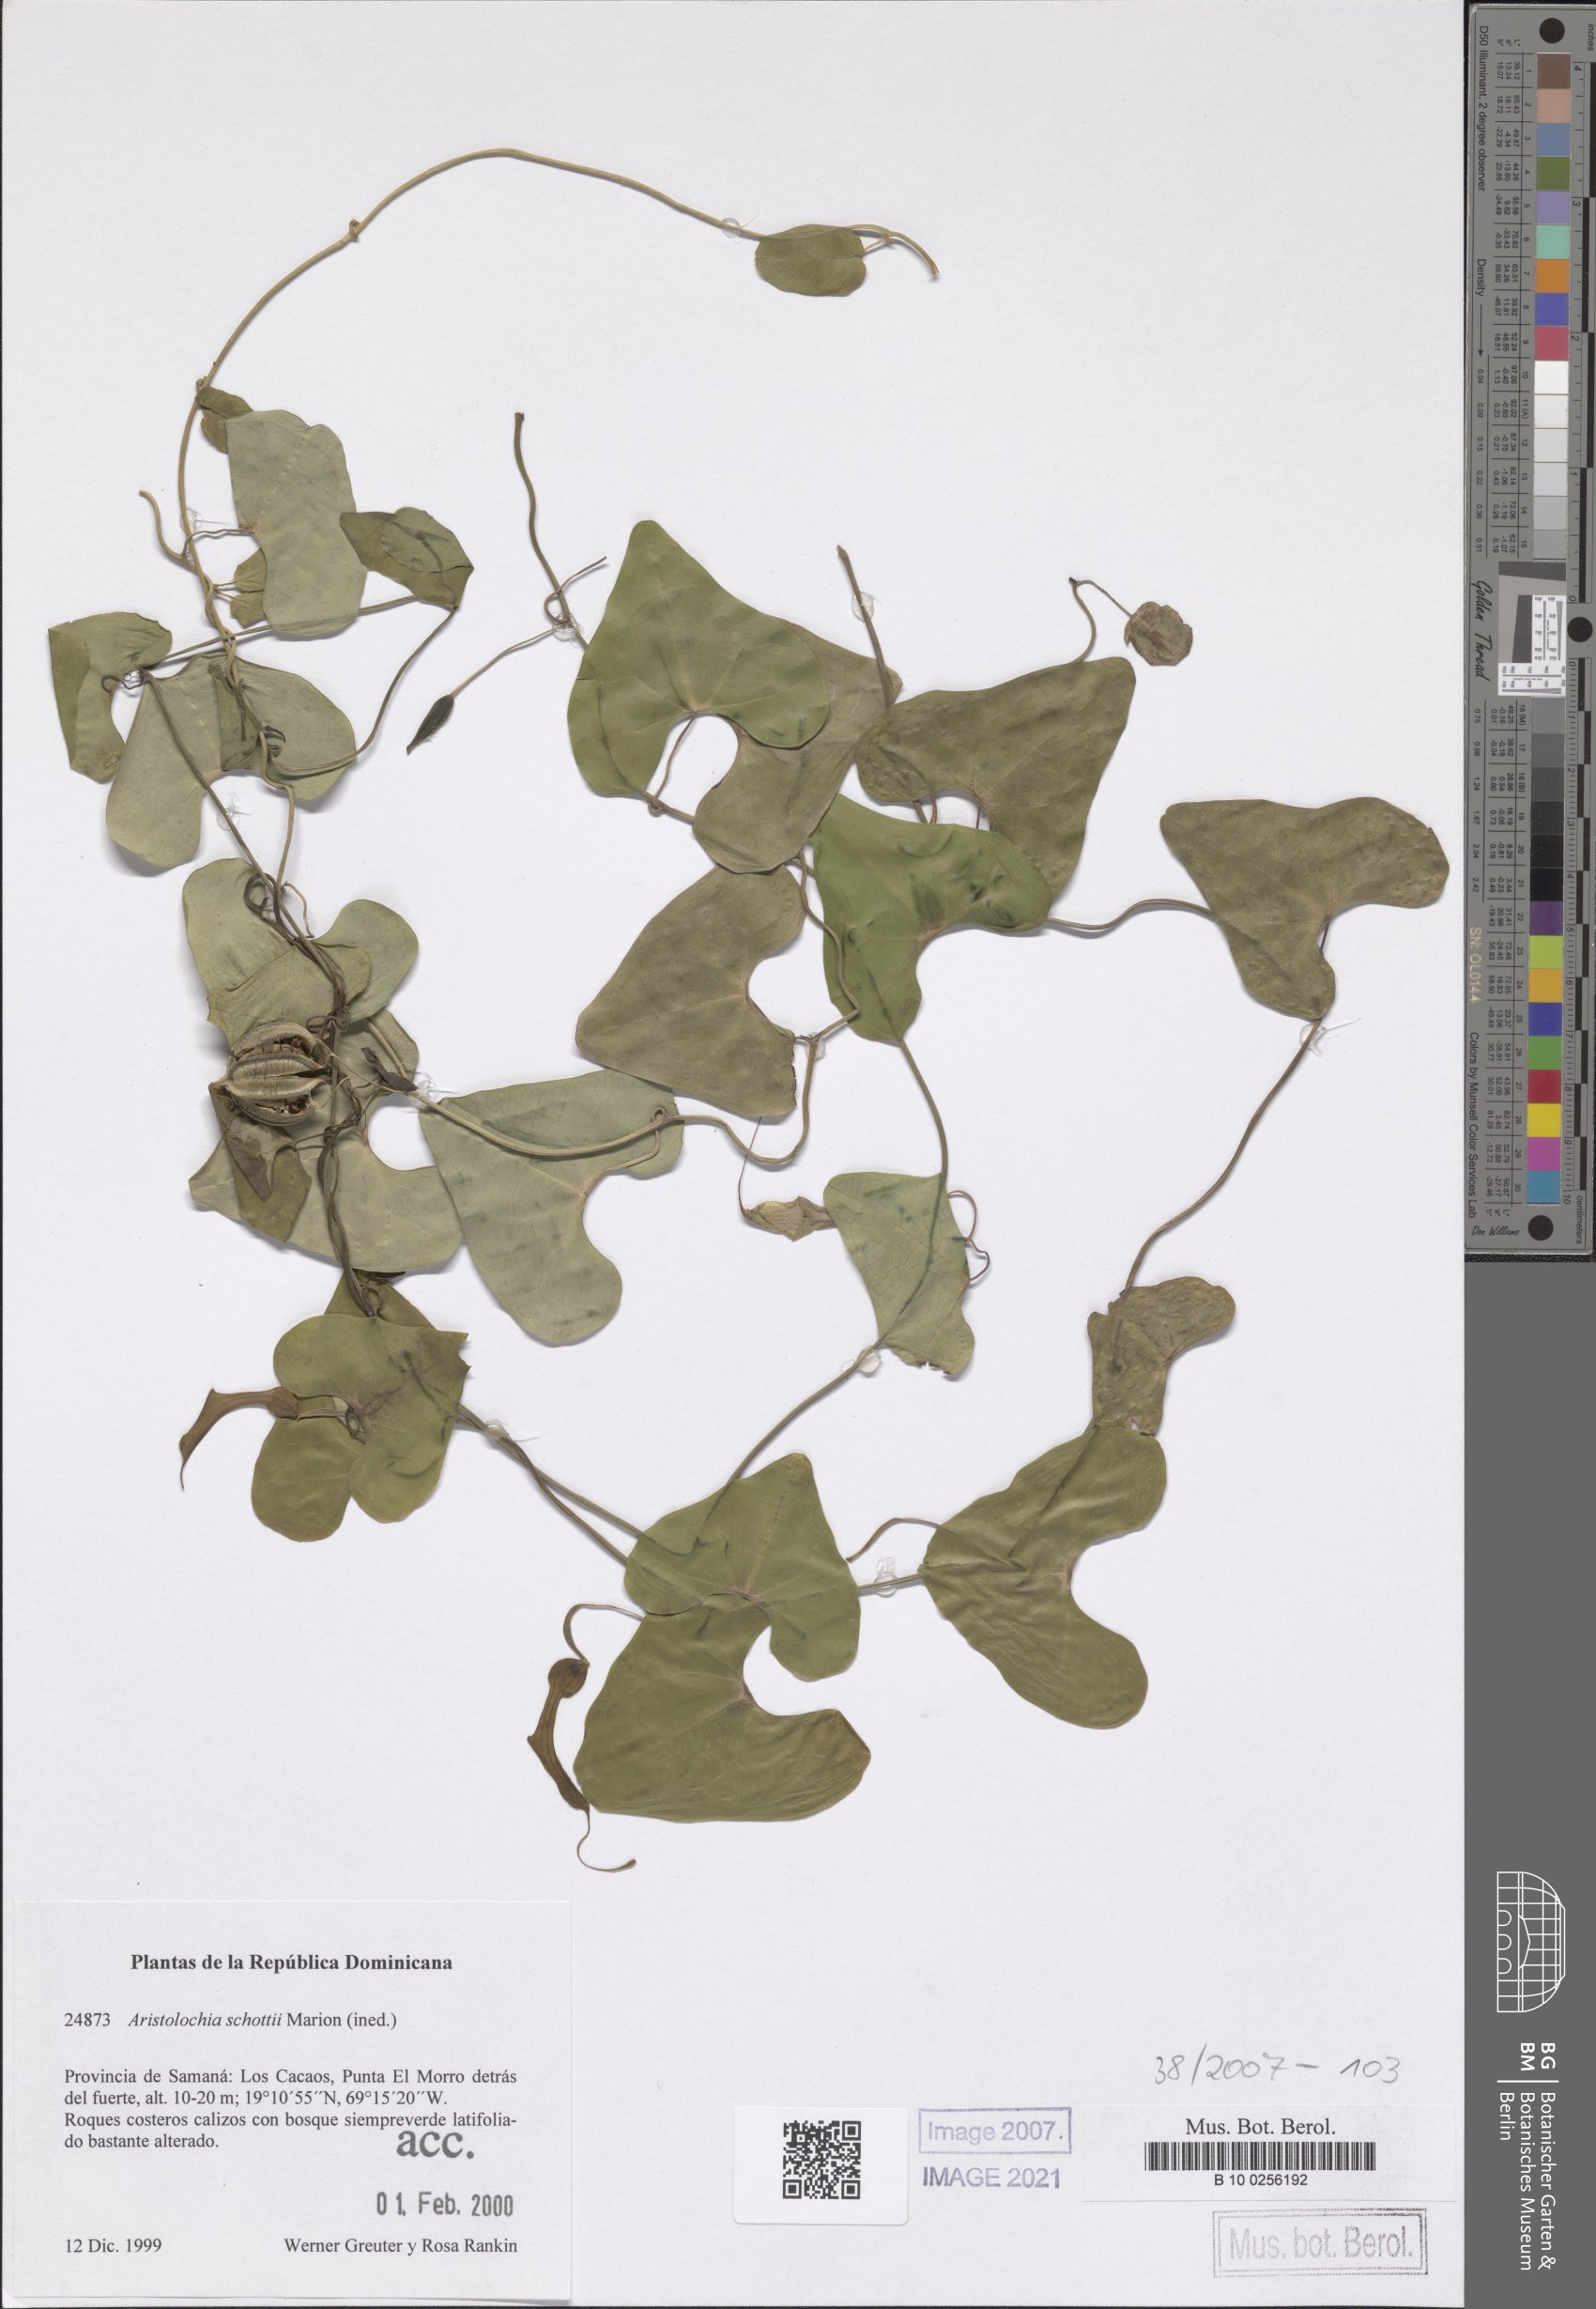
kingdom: Plantae
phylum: Tracheophyta
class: Magnoliopsida
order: Piperales
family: Aristolochiaceae
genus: Aristolochia
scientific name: Aristolochia schottii
